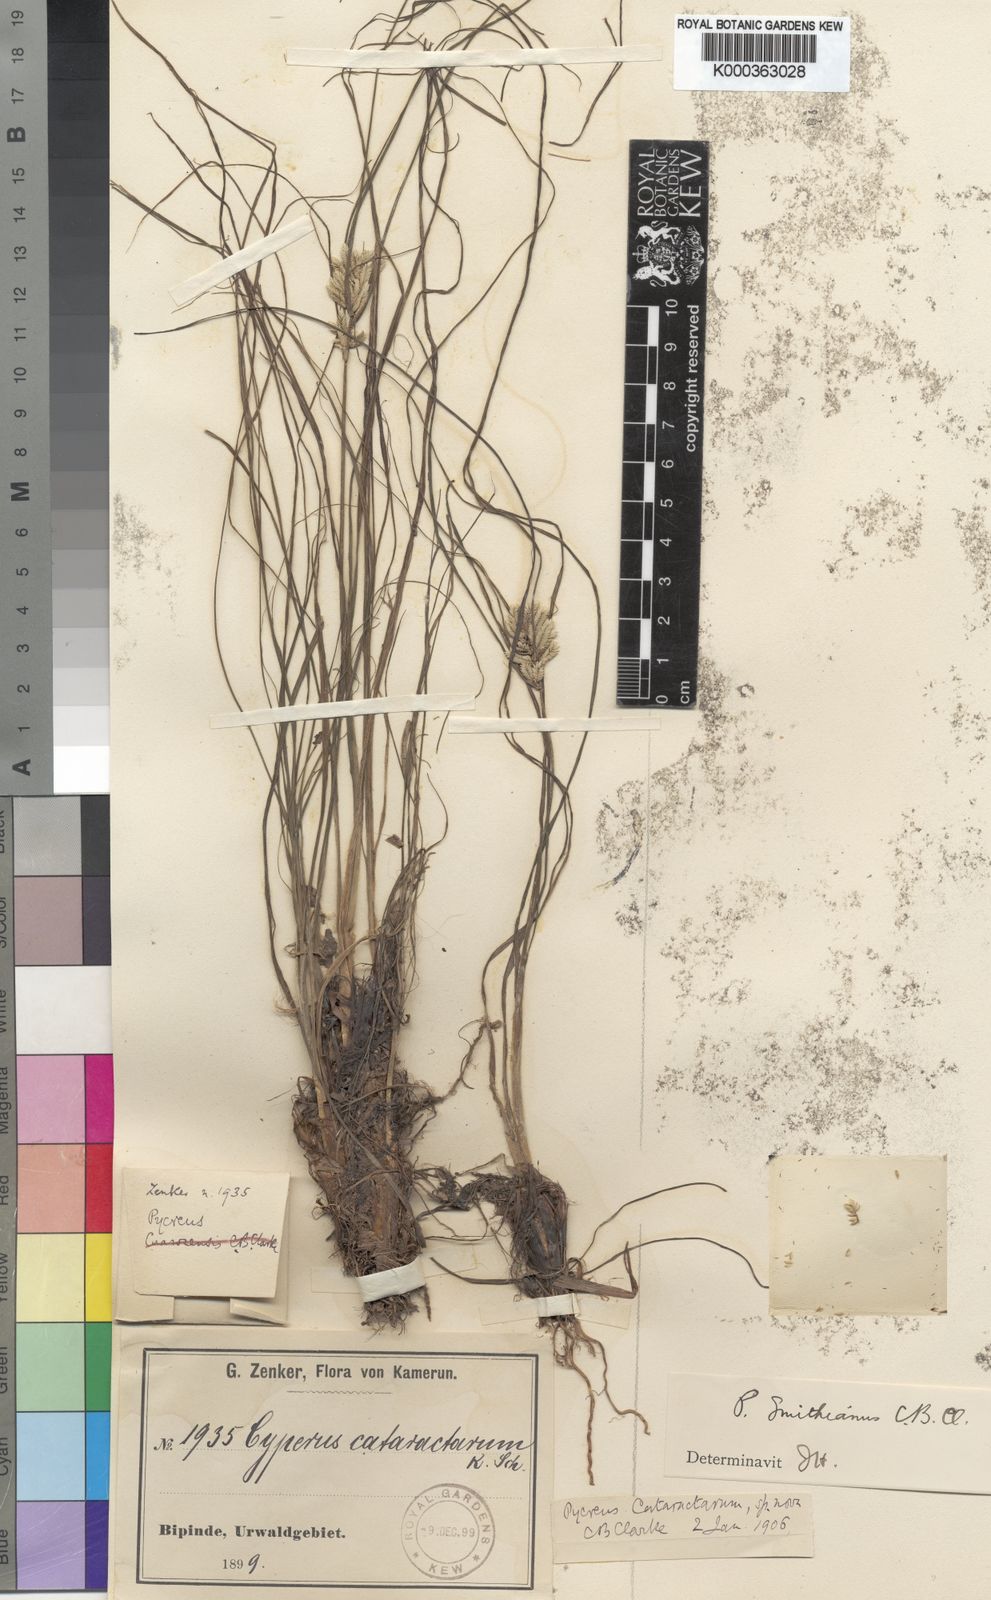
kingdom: Plantae
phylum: Tracheophyta
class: Liliopsida
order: Poales
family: Cyperaceae
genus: Cyperus
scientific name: Cyperus cataractarum
